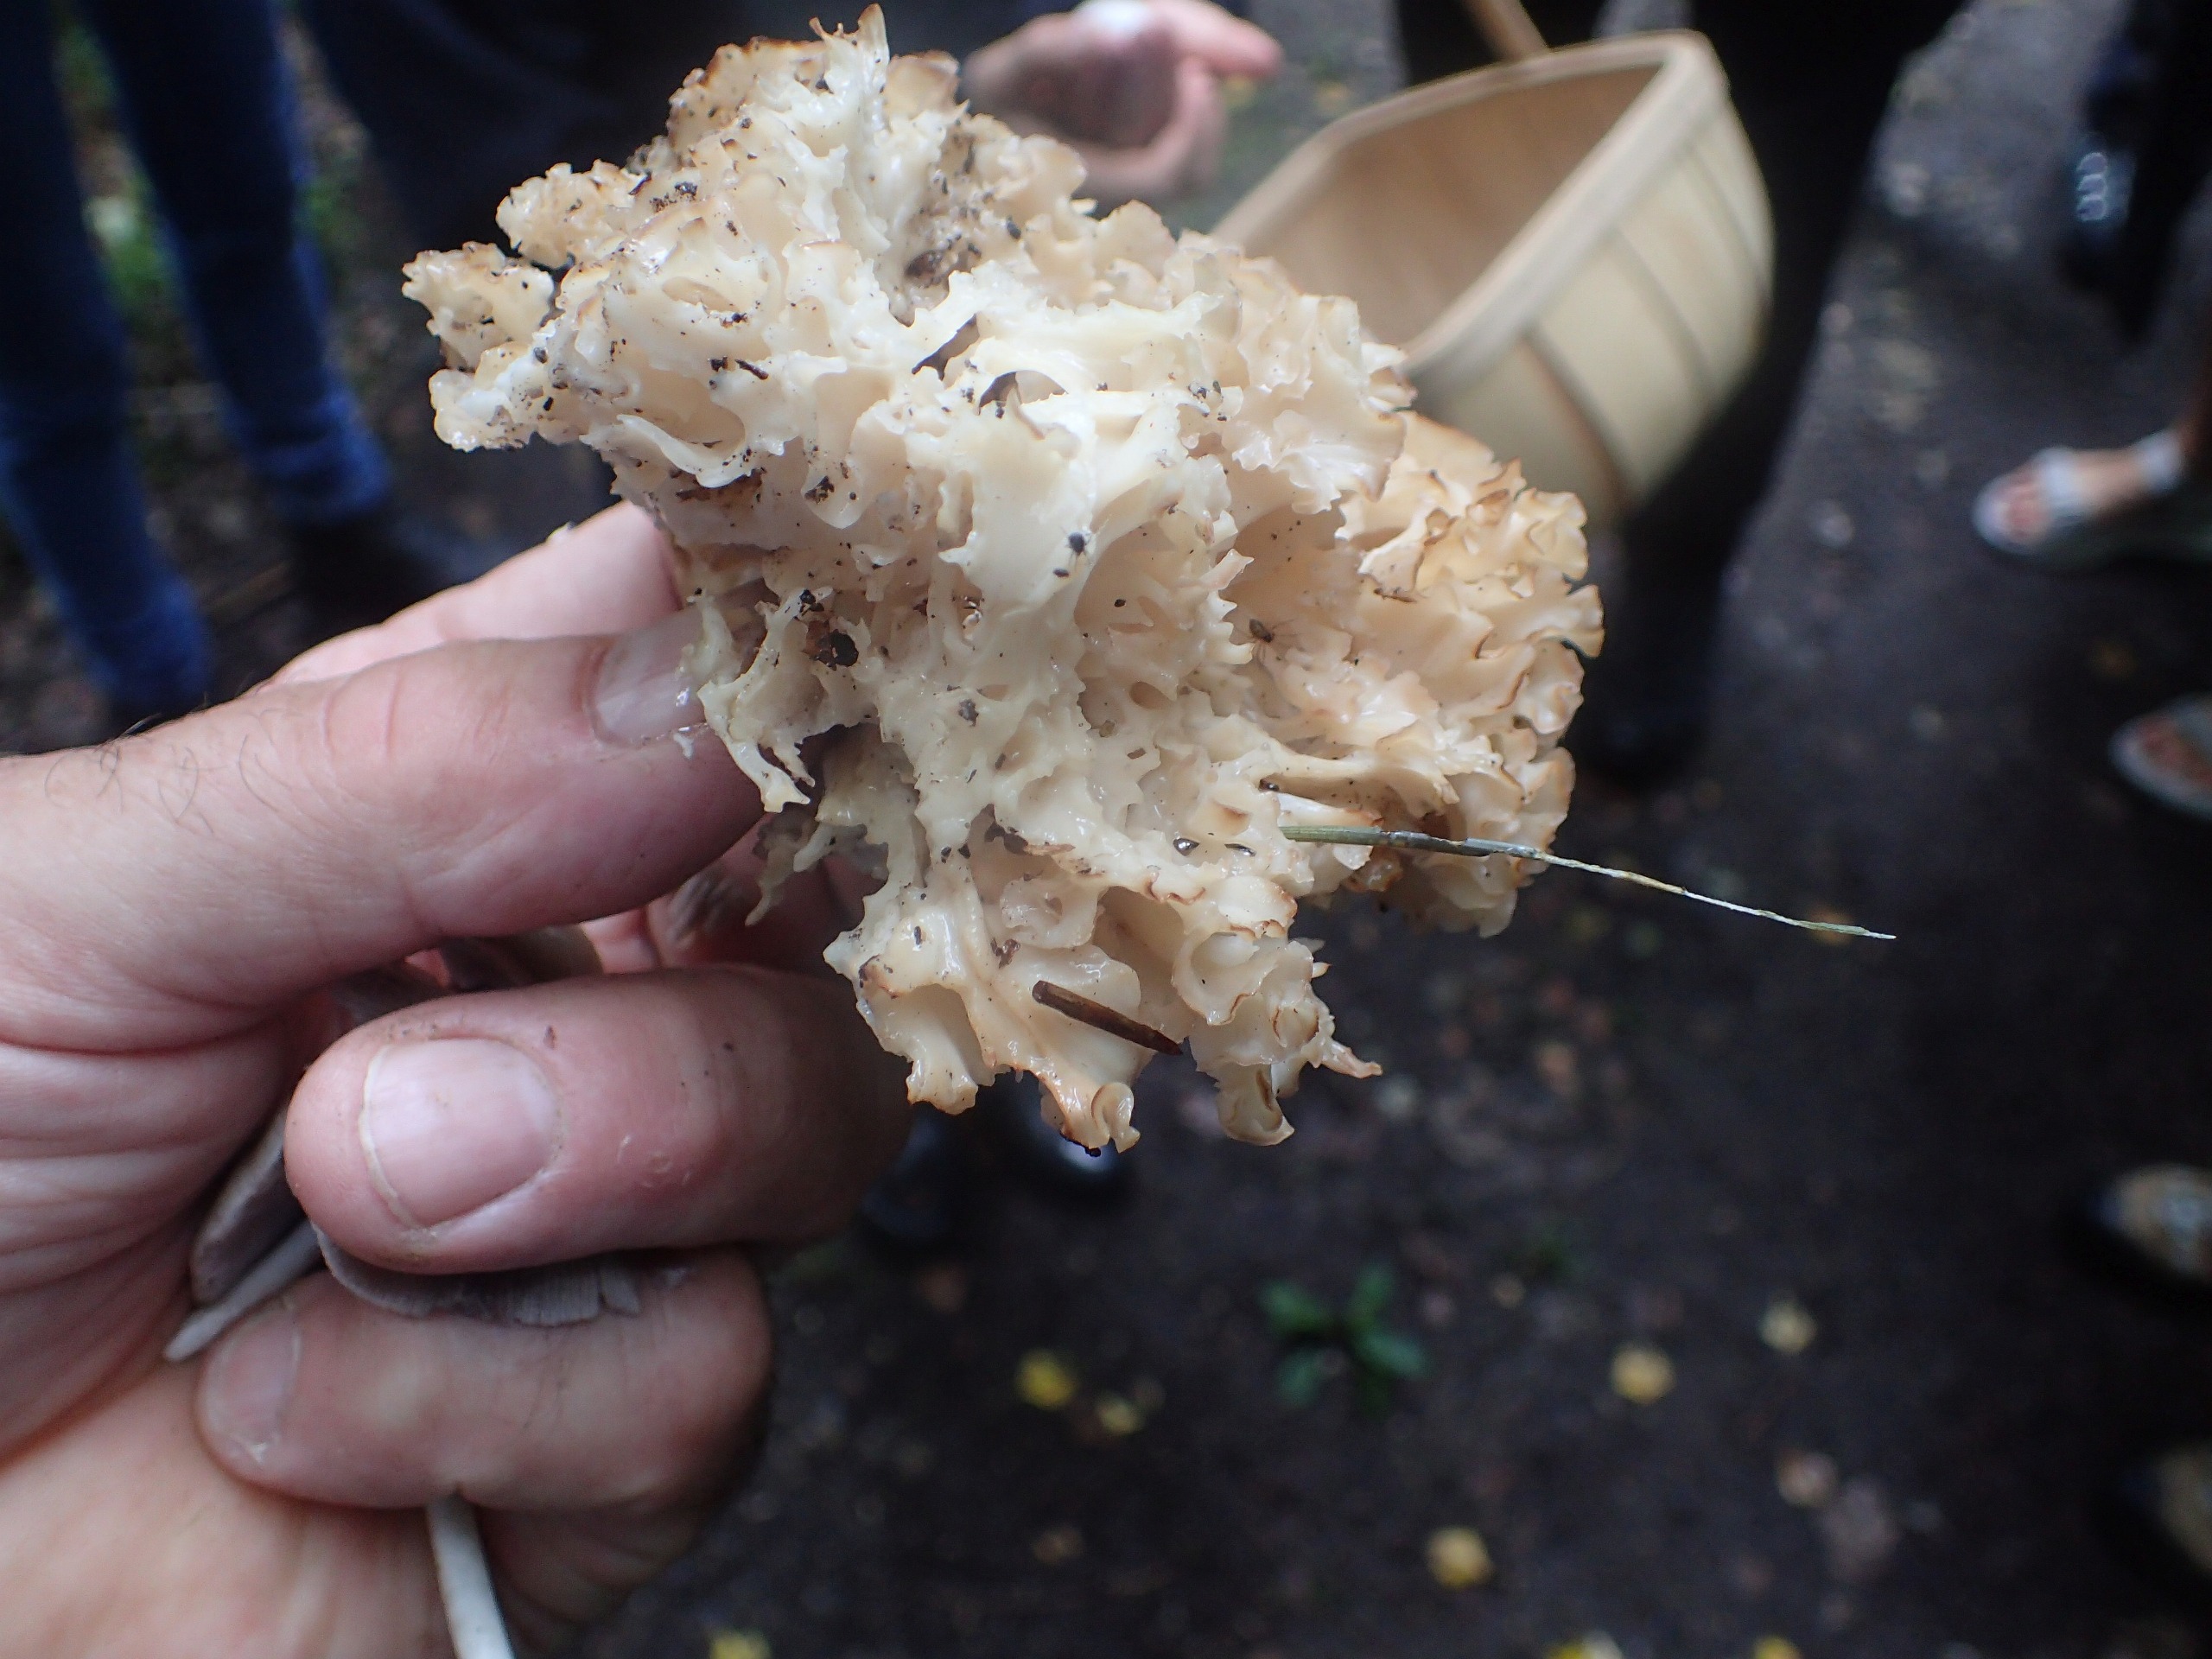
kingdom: Fungi
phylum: Basidiomycota
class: Agaricomycetes
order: Polyporales
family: Sparassidaceae
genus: Sparassis
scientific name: Sparassis crispa
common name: Kruset blomkålssvamp
